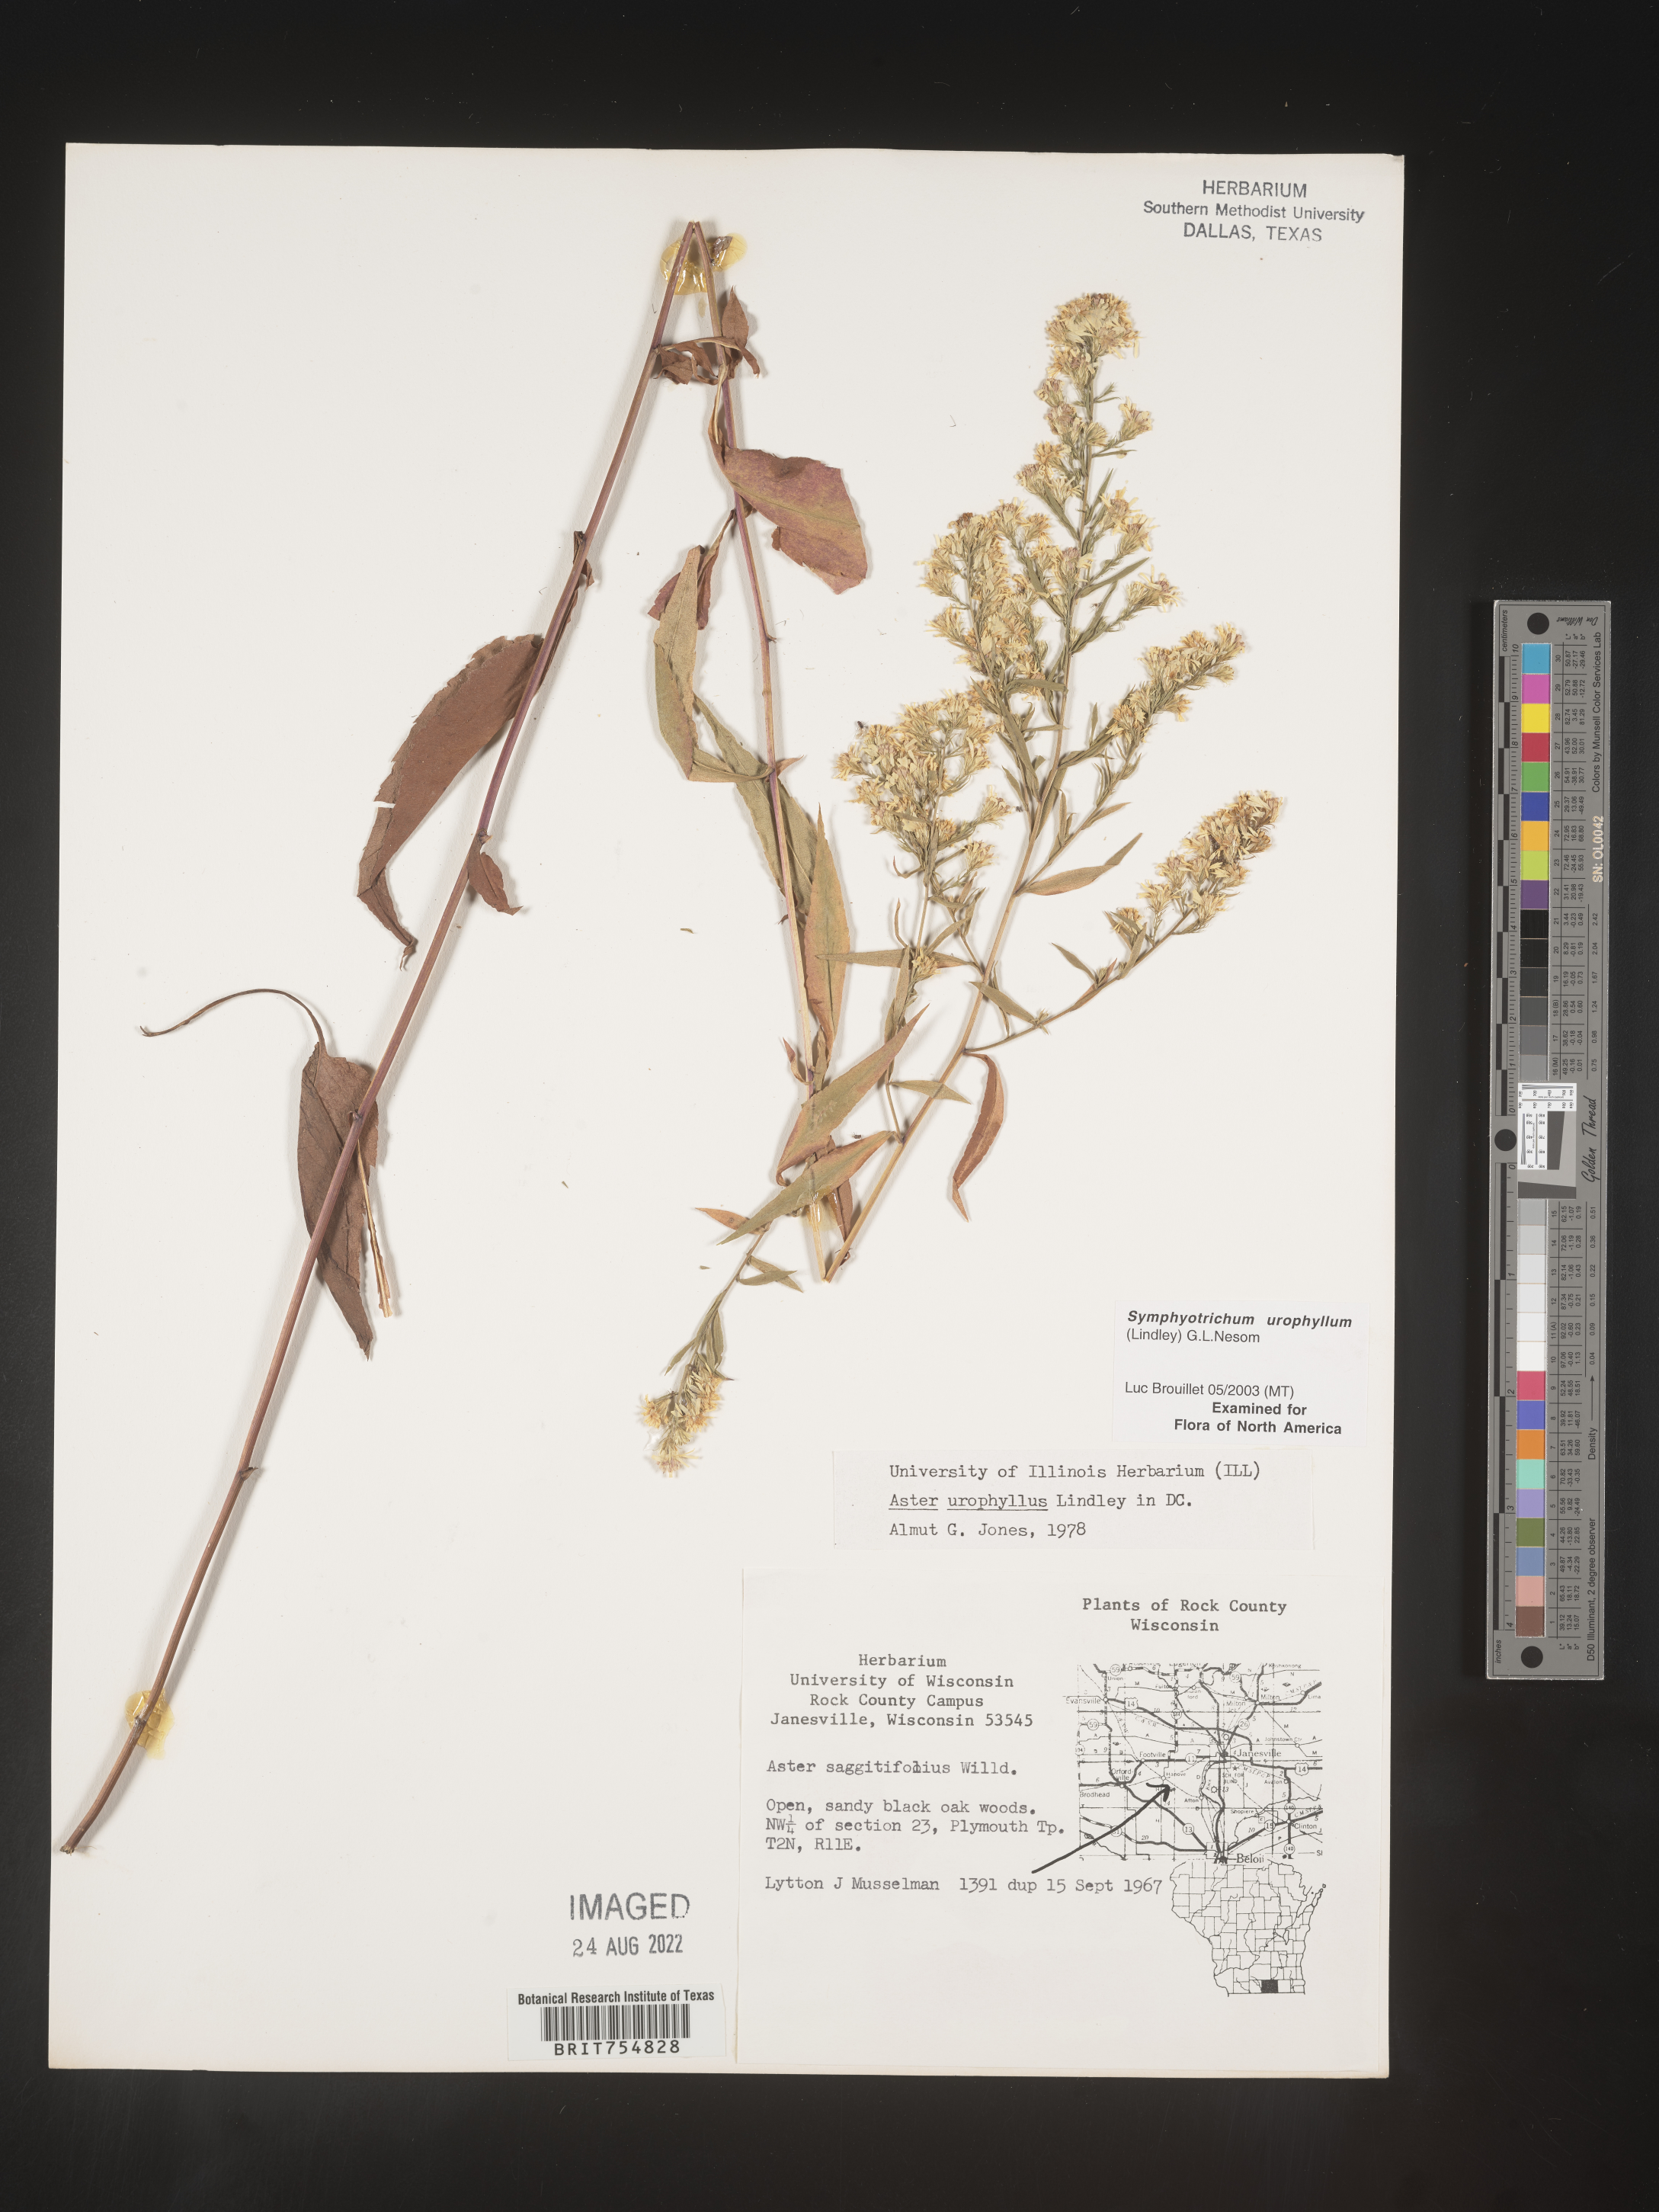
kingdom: Plantae
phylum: Tracheophyta
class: Magnoliopsida
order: Asterales
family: Asteraceae
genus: Symphyotrichum
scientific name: Symphyotrichum urophyllum
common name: Arrow-leaved aster
